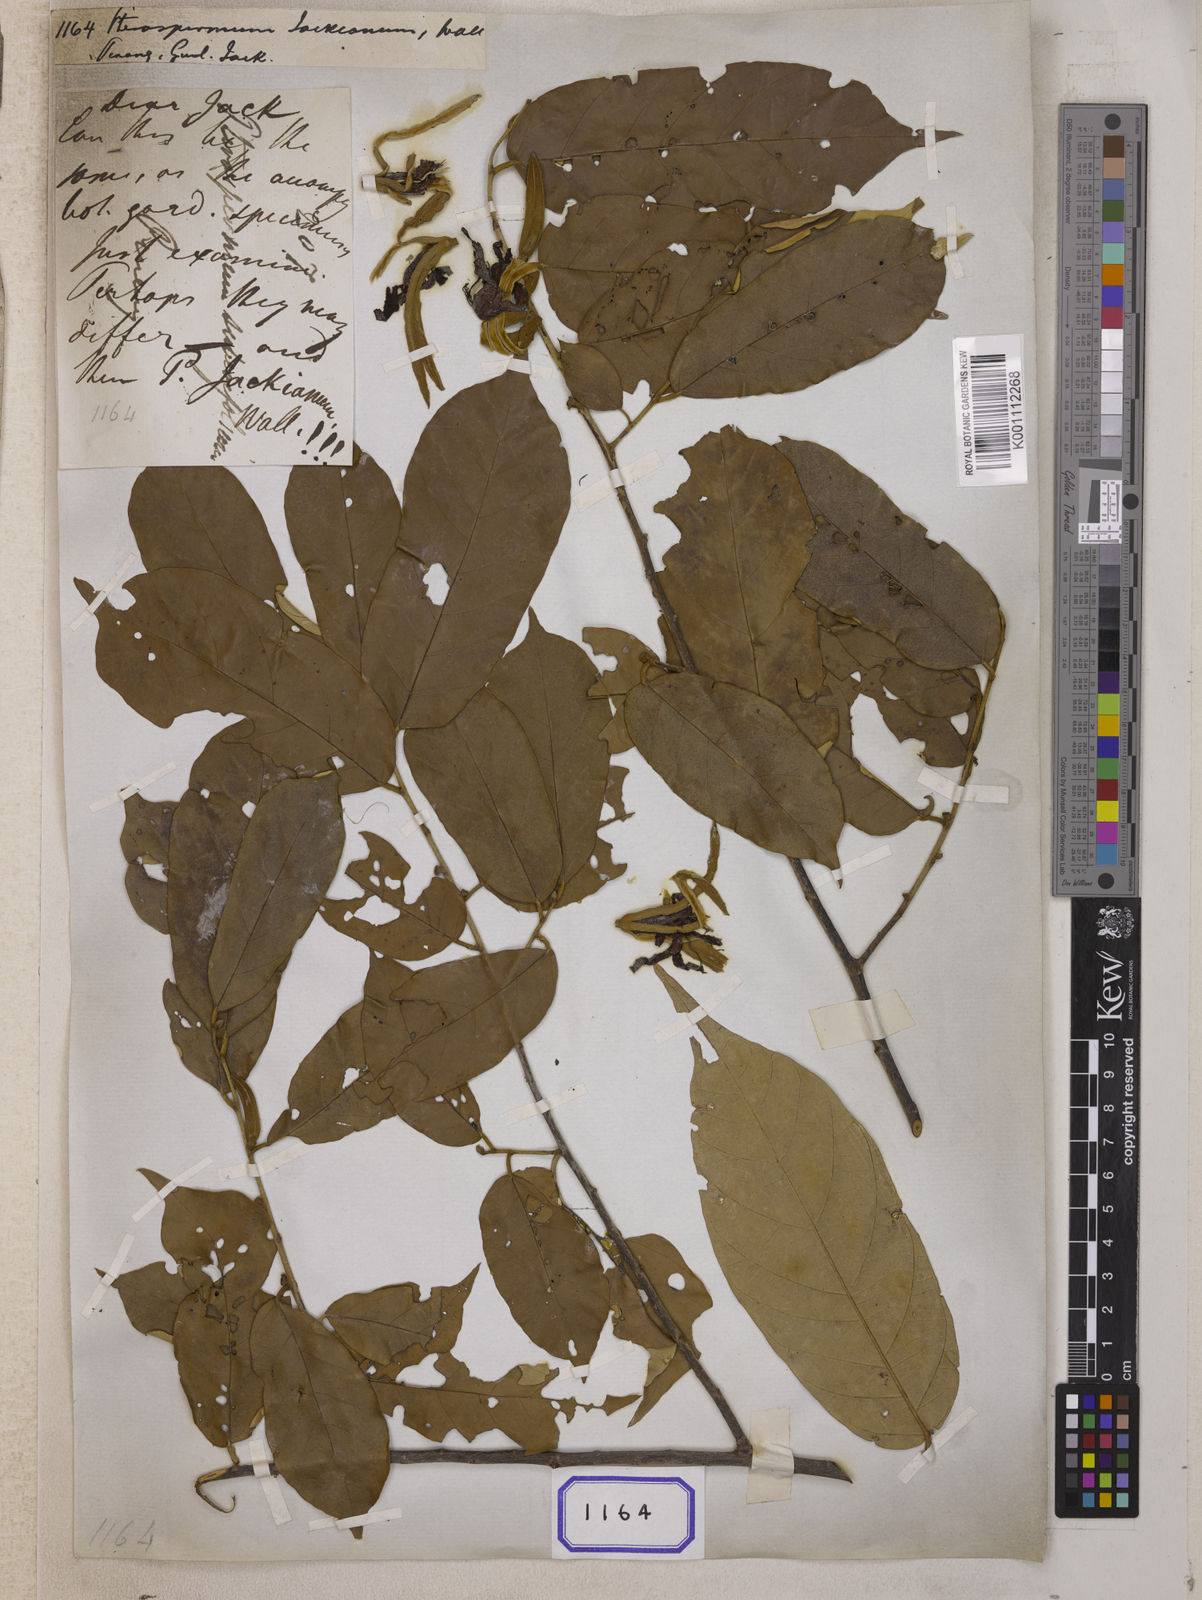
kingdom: Plantae
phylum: Tracheophyta
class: Magnoliopsida
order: Malvales
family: Malvaceae
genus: Pterospermum
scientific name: Pterospermum
